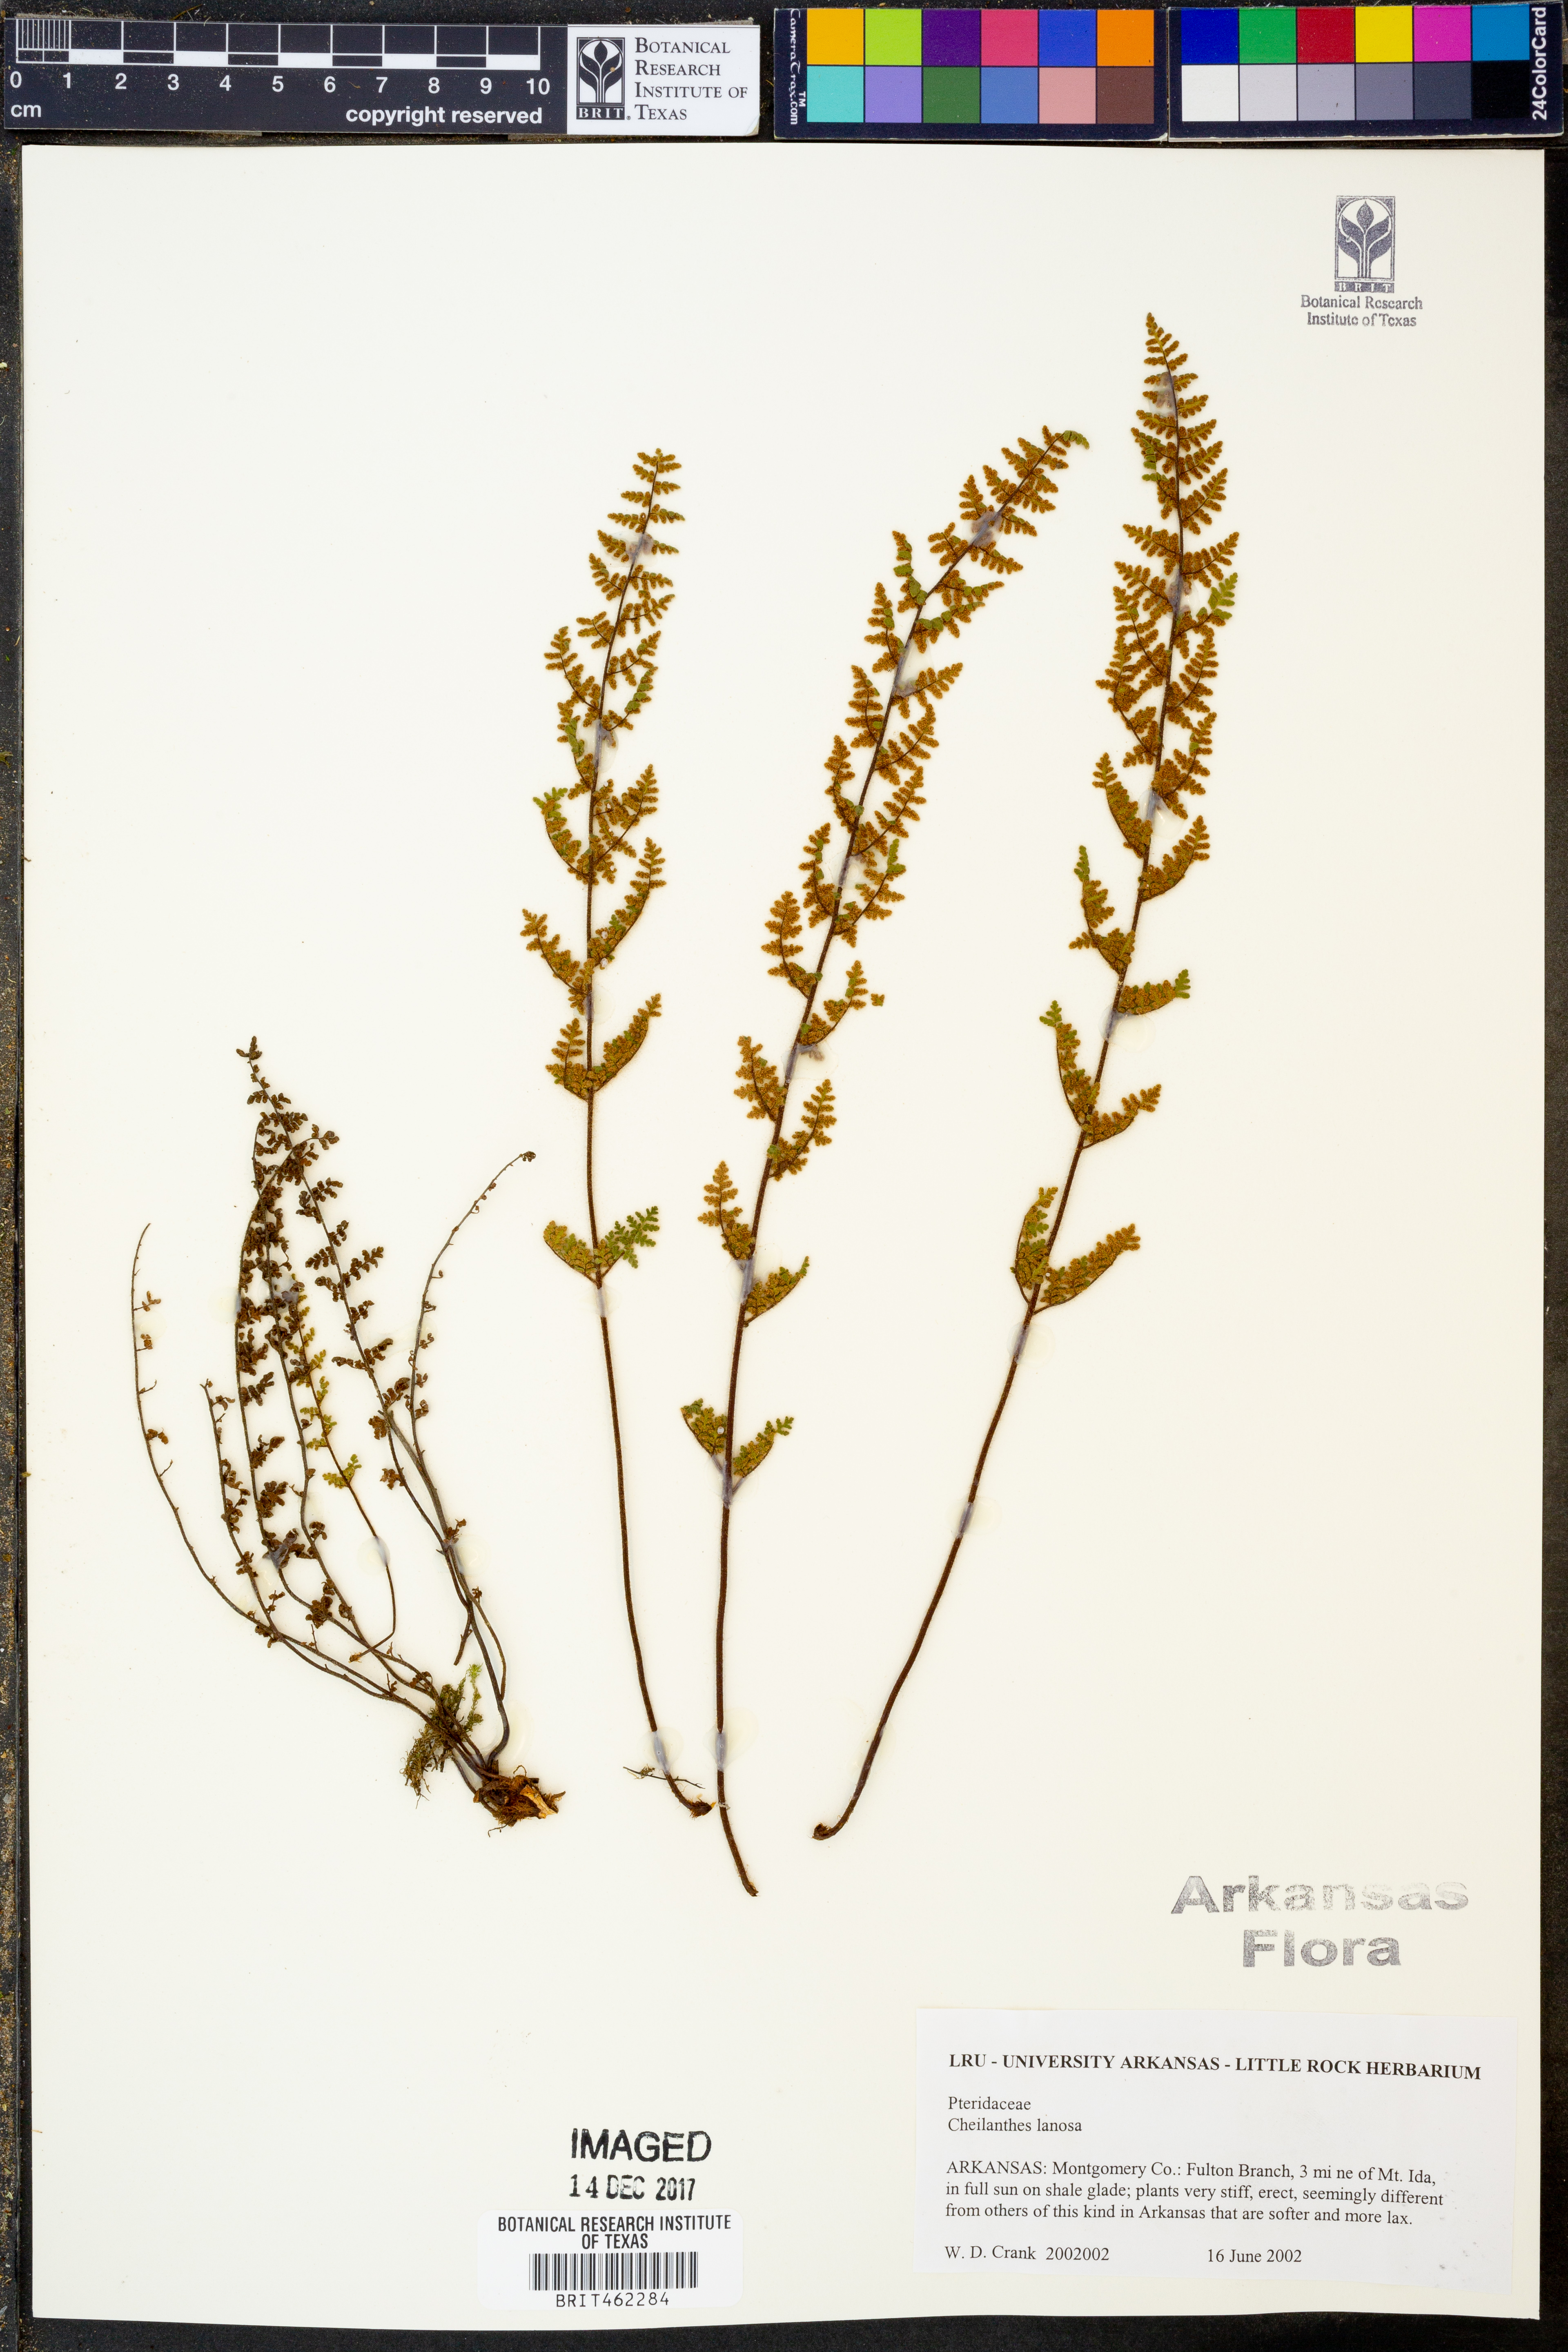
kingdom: Plantae
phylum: Tracheophyta
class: Polypodiopsida
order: Polypodiales
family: Pteridaceae
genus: Myriopteris
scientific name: Myriopteris lanosa
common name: Hairy lip fern
